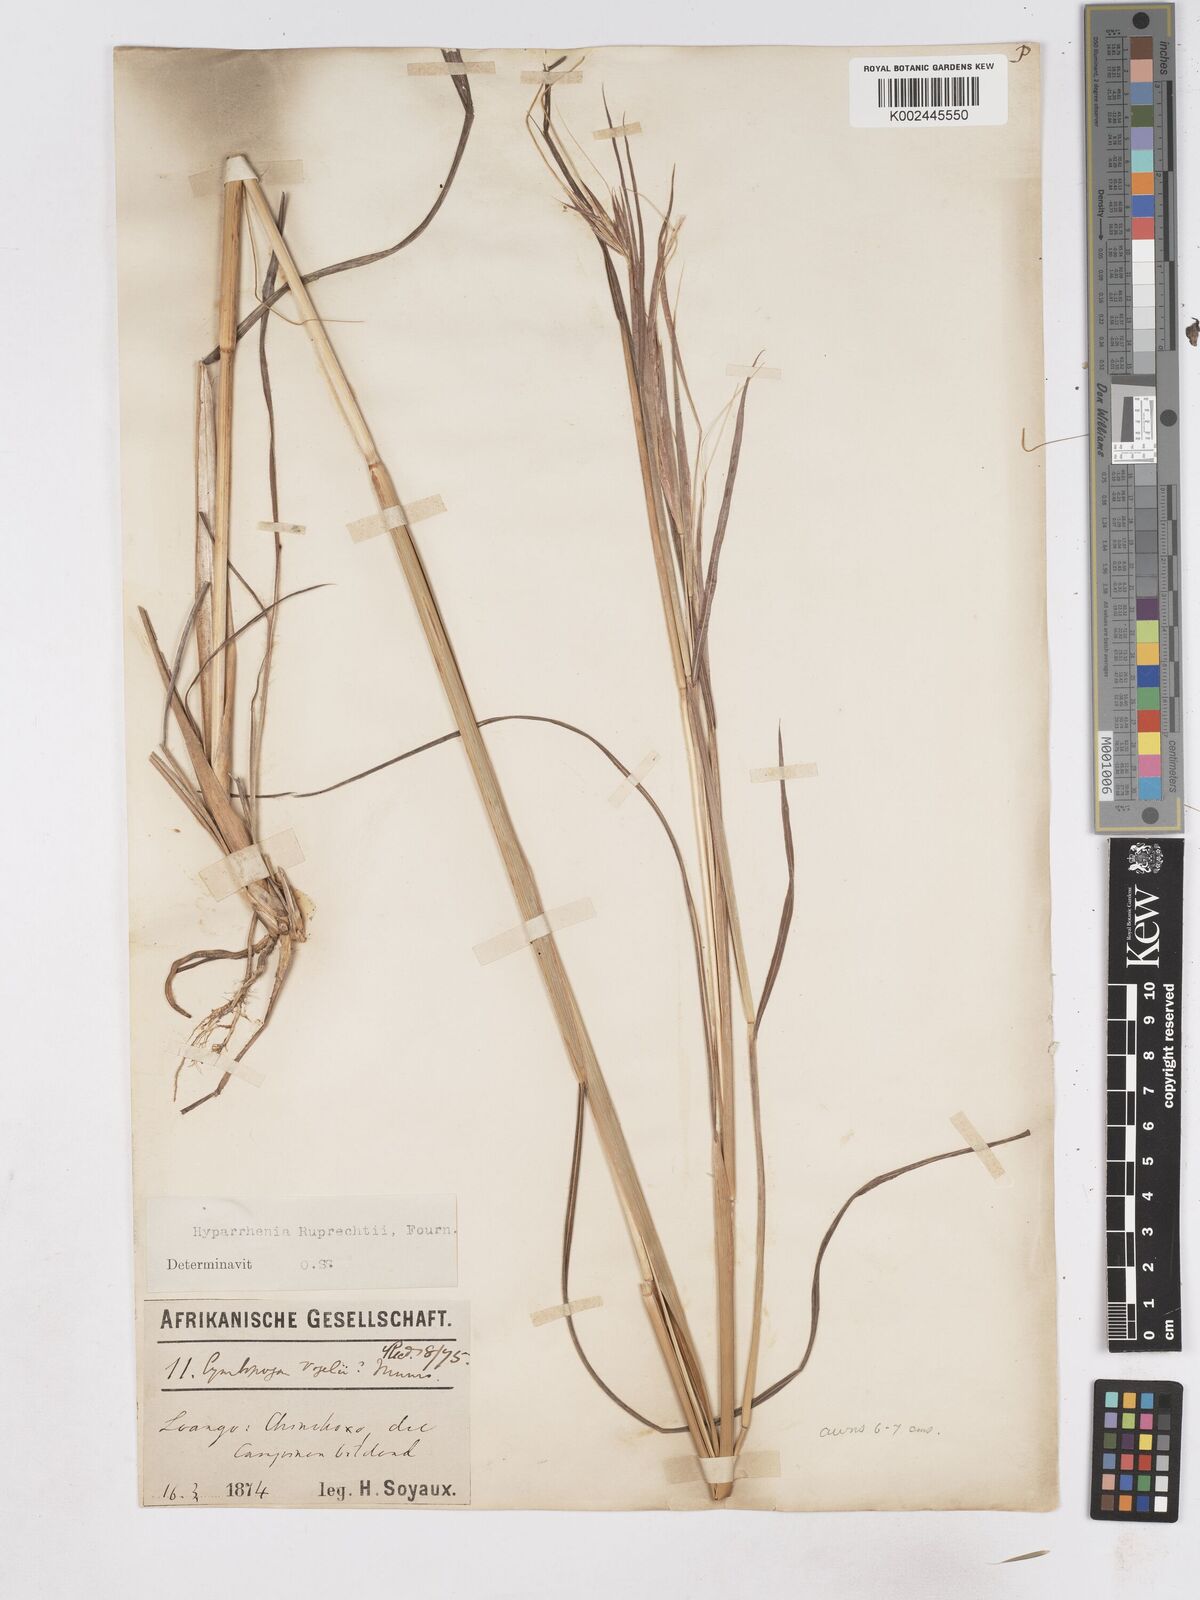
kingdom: Plantae
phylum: Tracheophyta
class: Liliopsida
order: Poales
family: Poaceae
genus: Hyperthelia
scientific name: Hyperthelia dissoluta
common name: Yellow thatching grass
